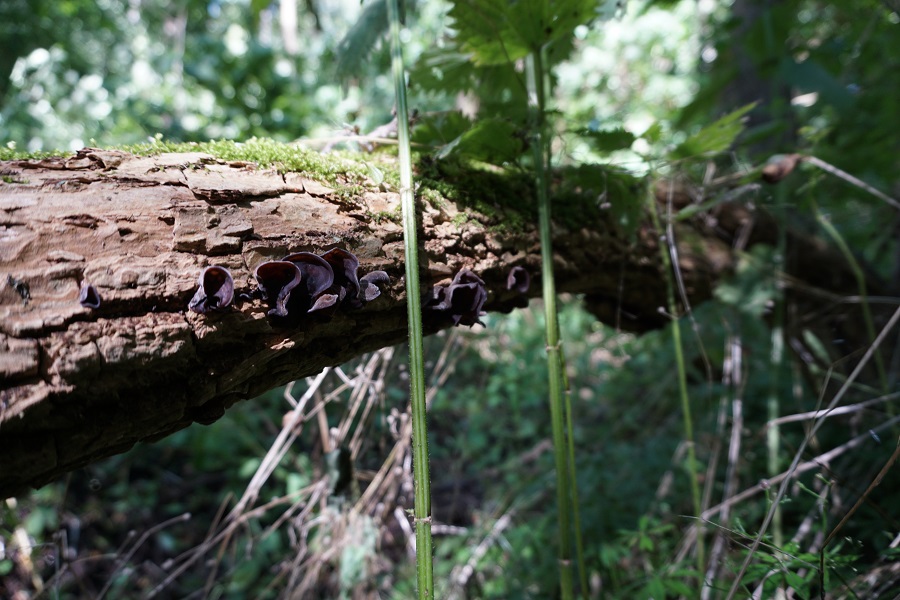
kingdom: Fungi
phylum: Basidiomycota
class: Agaricomycetes
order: Auriculariales
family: Auriculariaceae
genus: Auricularia
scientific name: Auricularia auricula-judae
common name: almindelig judasøre
